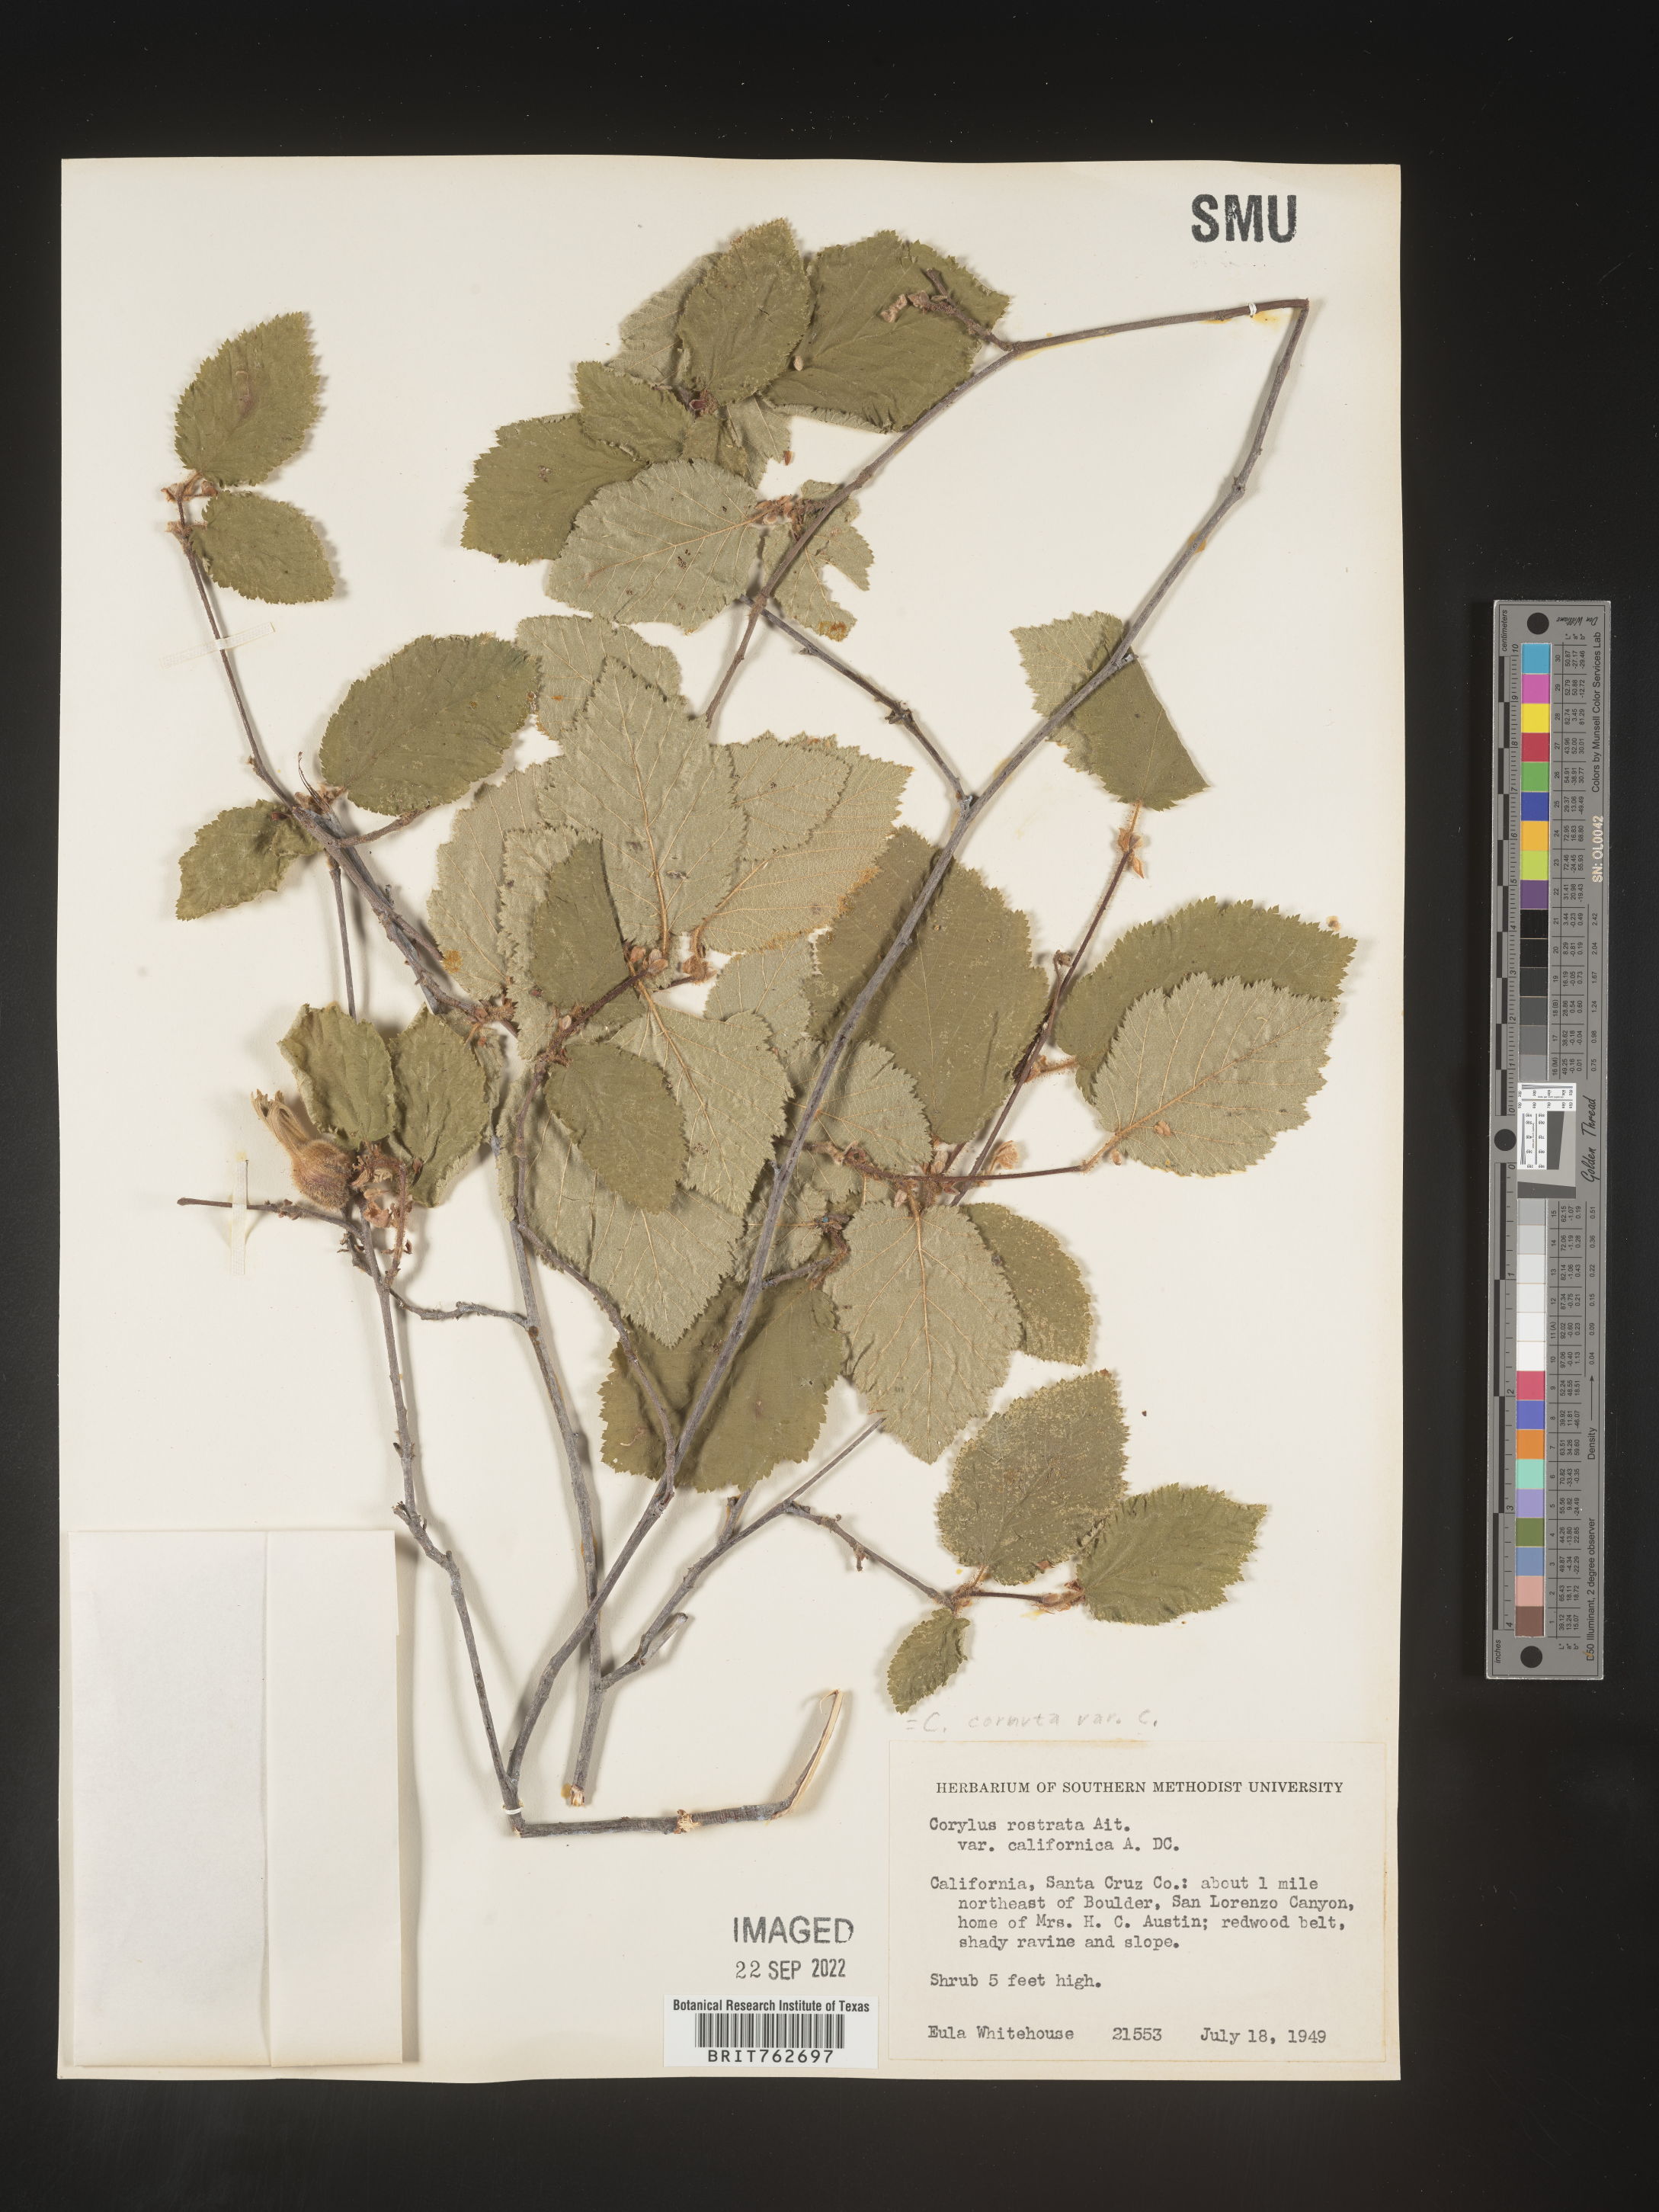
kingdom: Plantae
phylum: Tracheophyta
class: Magnoliopsida
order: Fagales
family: Betulaceae
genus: Corylus
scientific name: Corylus cornuta
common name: Beaked hazel
